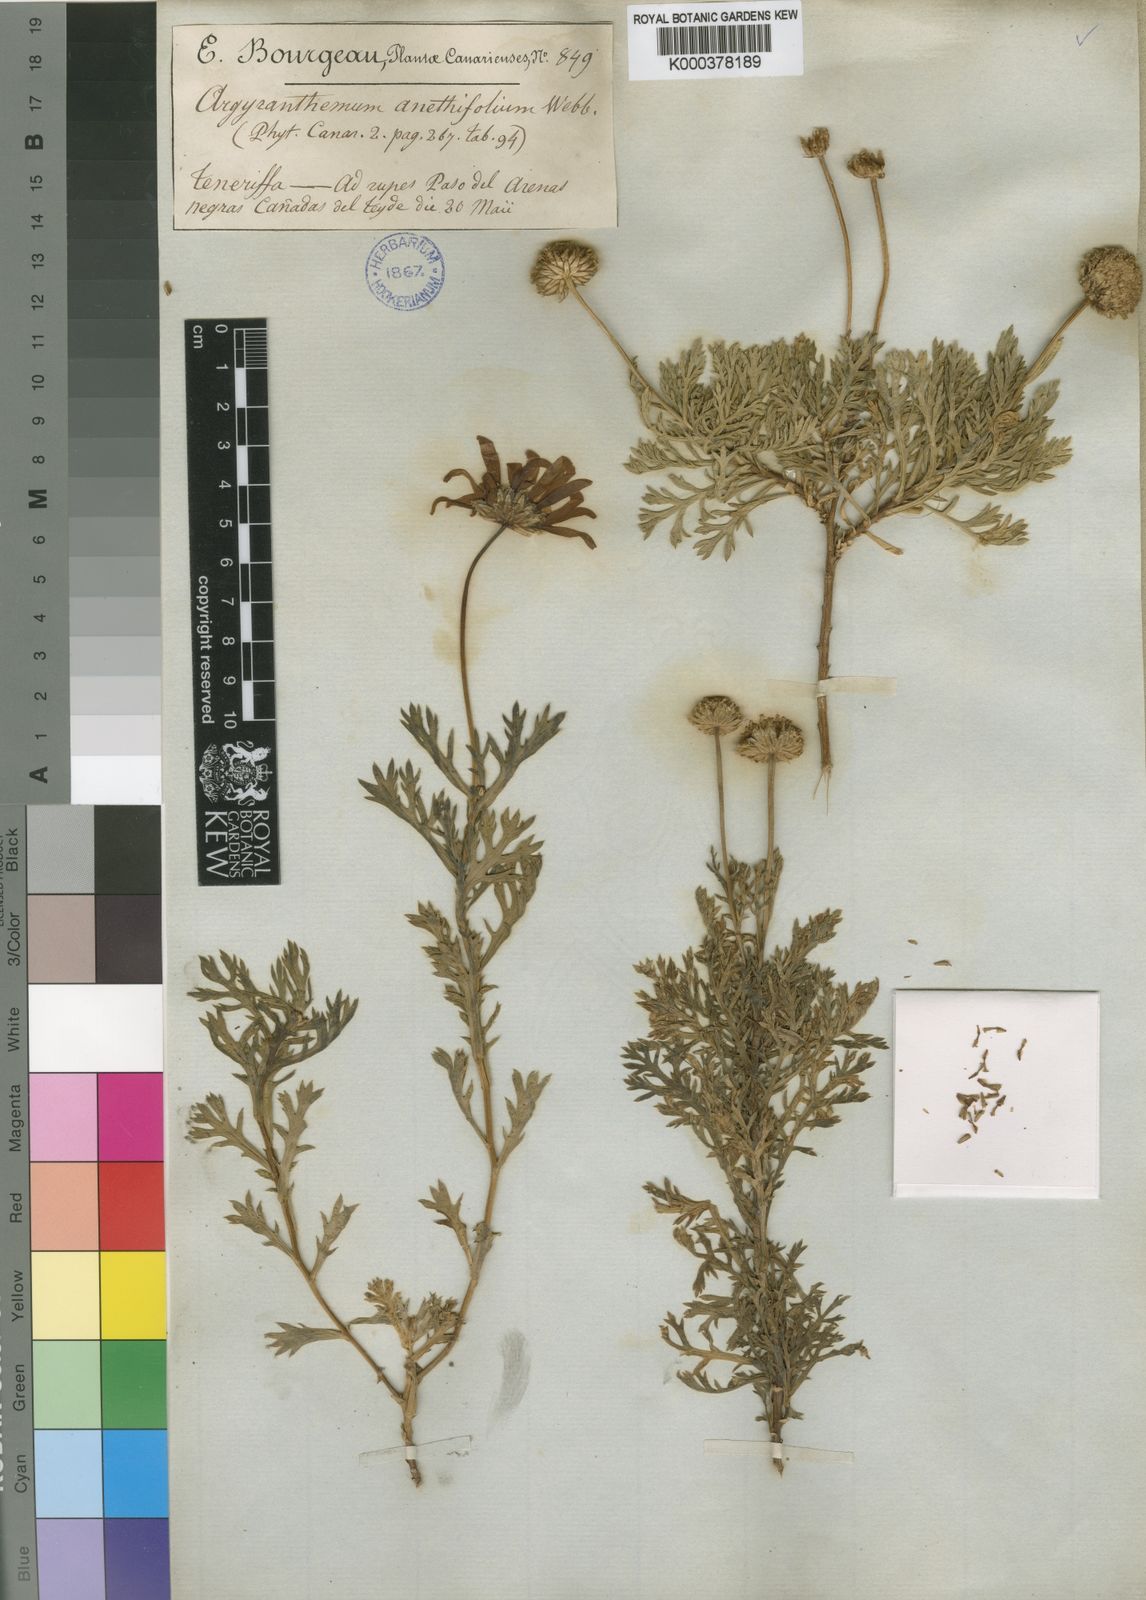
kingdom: Plantae
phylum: Tracheophyta
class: Magnoliopsida
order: Asterales
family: Asteraceae
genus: Argyranthemum
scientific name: Argyranthemum tenerifae
